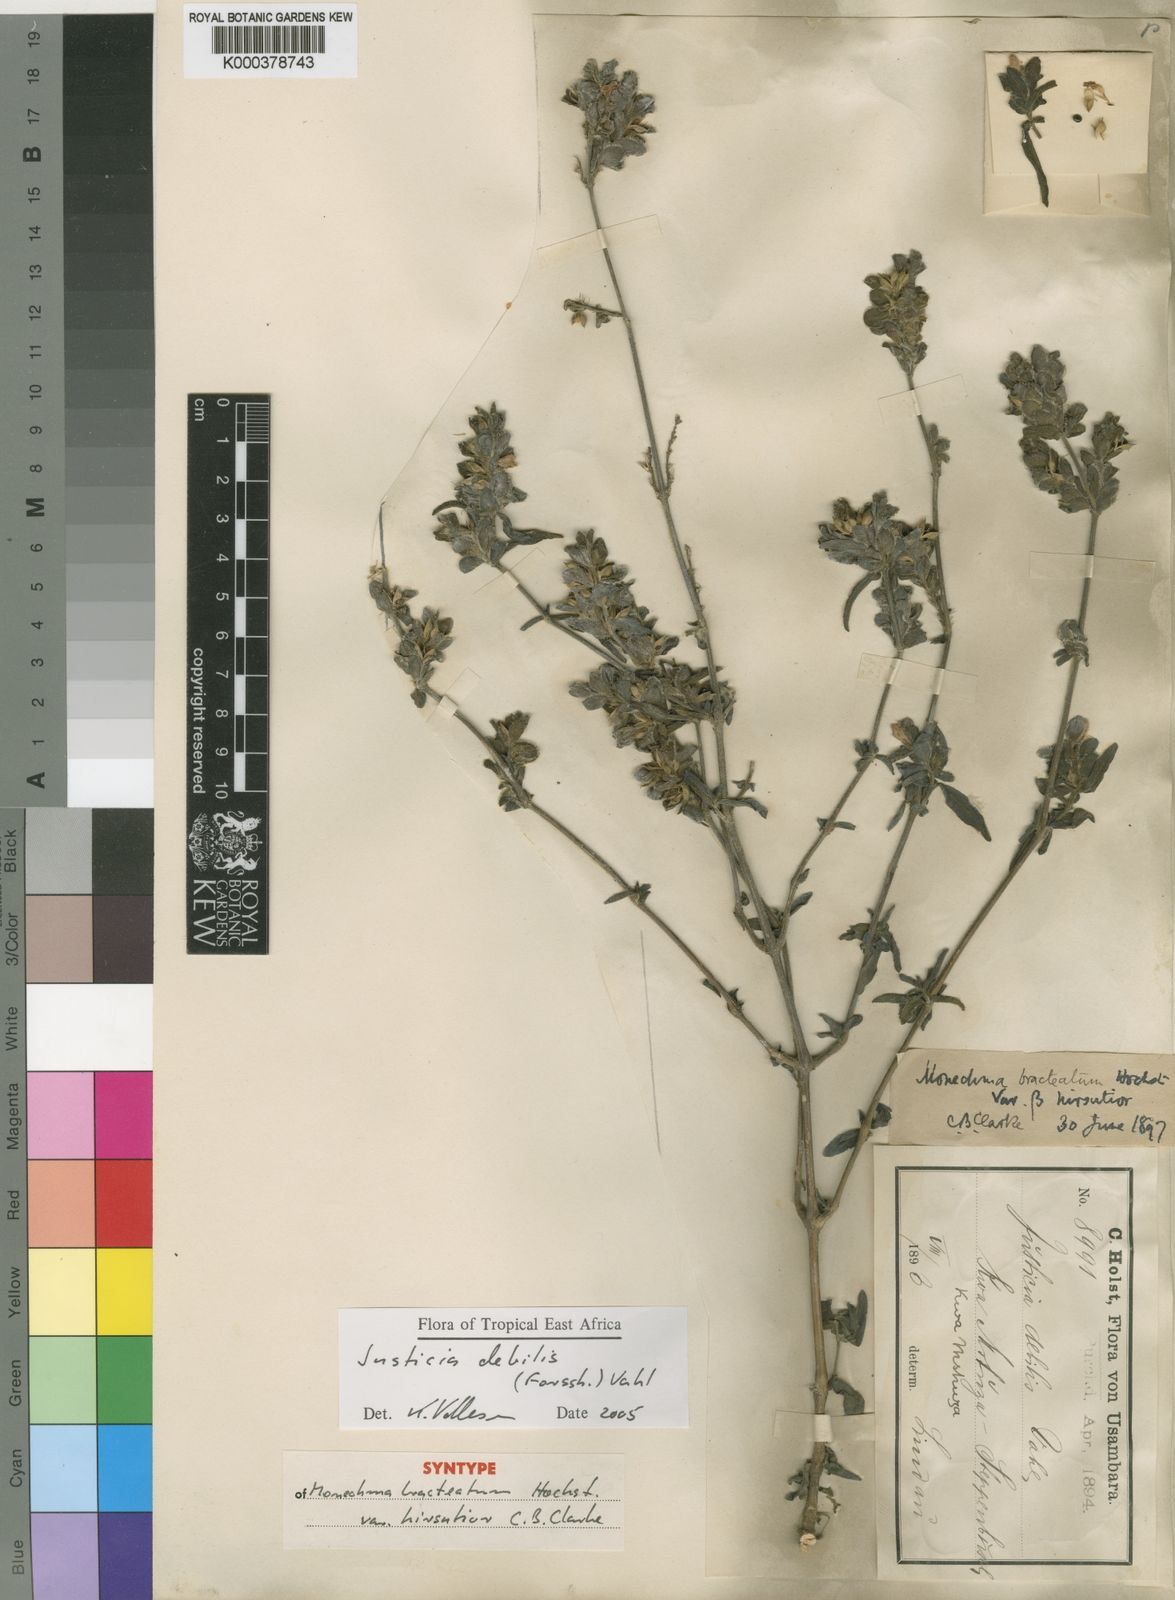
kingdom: Plantae
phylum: Tracheophyta
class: Magnoliopsida
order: Lamiales
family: Acanthaceae
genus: Monechma
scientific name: Monechma
